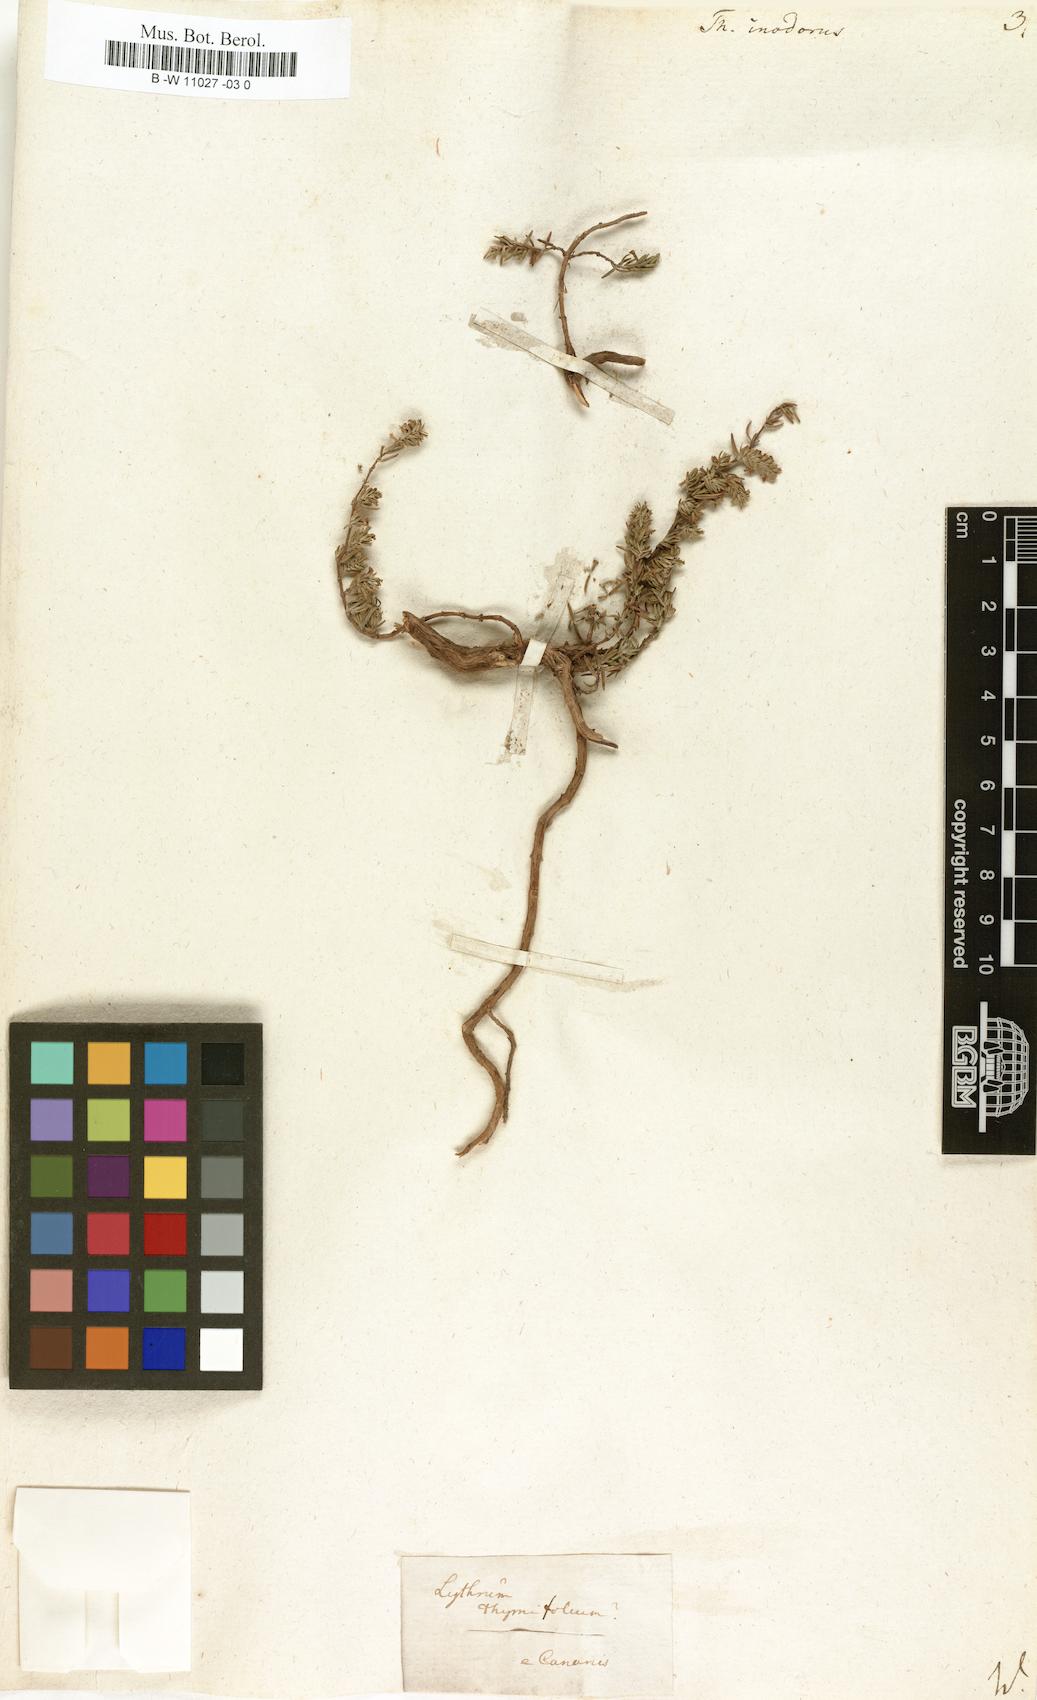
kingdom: Plantae
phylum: Tracheophyta
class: Magnoliopsida
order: Lamiales
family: Lamiaceae
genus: Thymus
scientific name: Thymus inodorus
